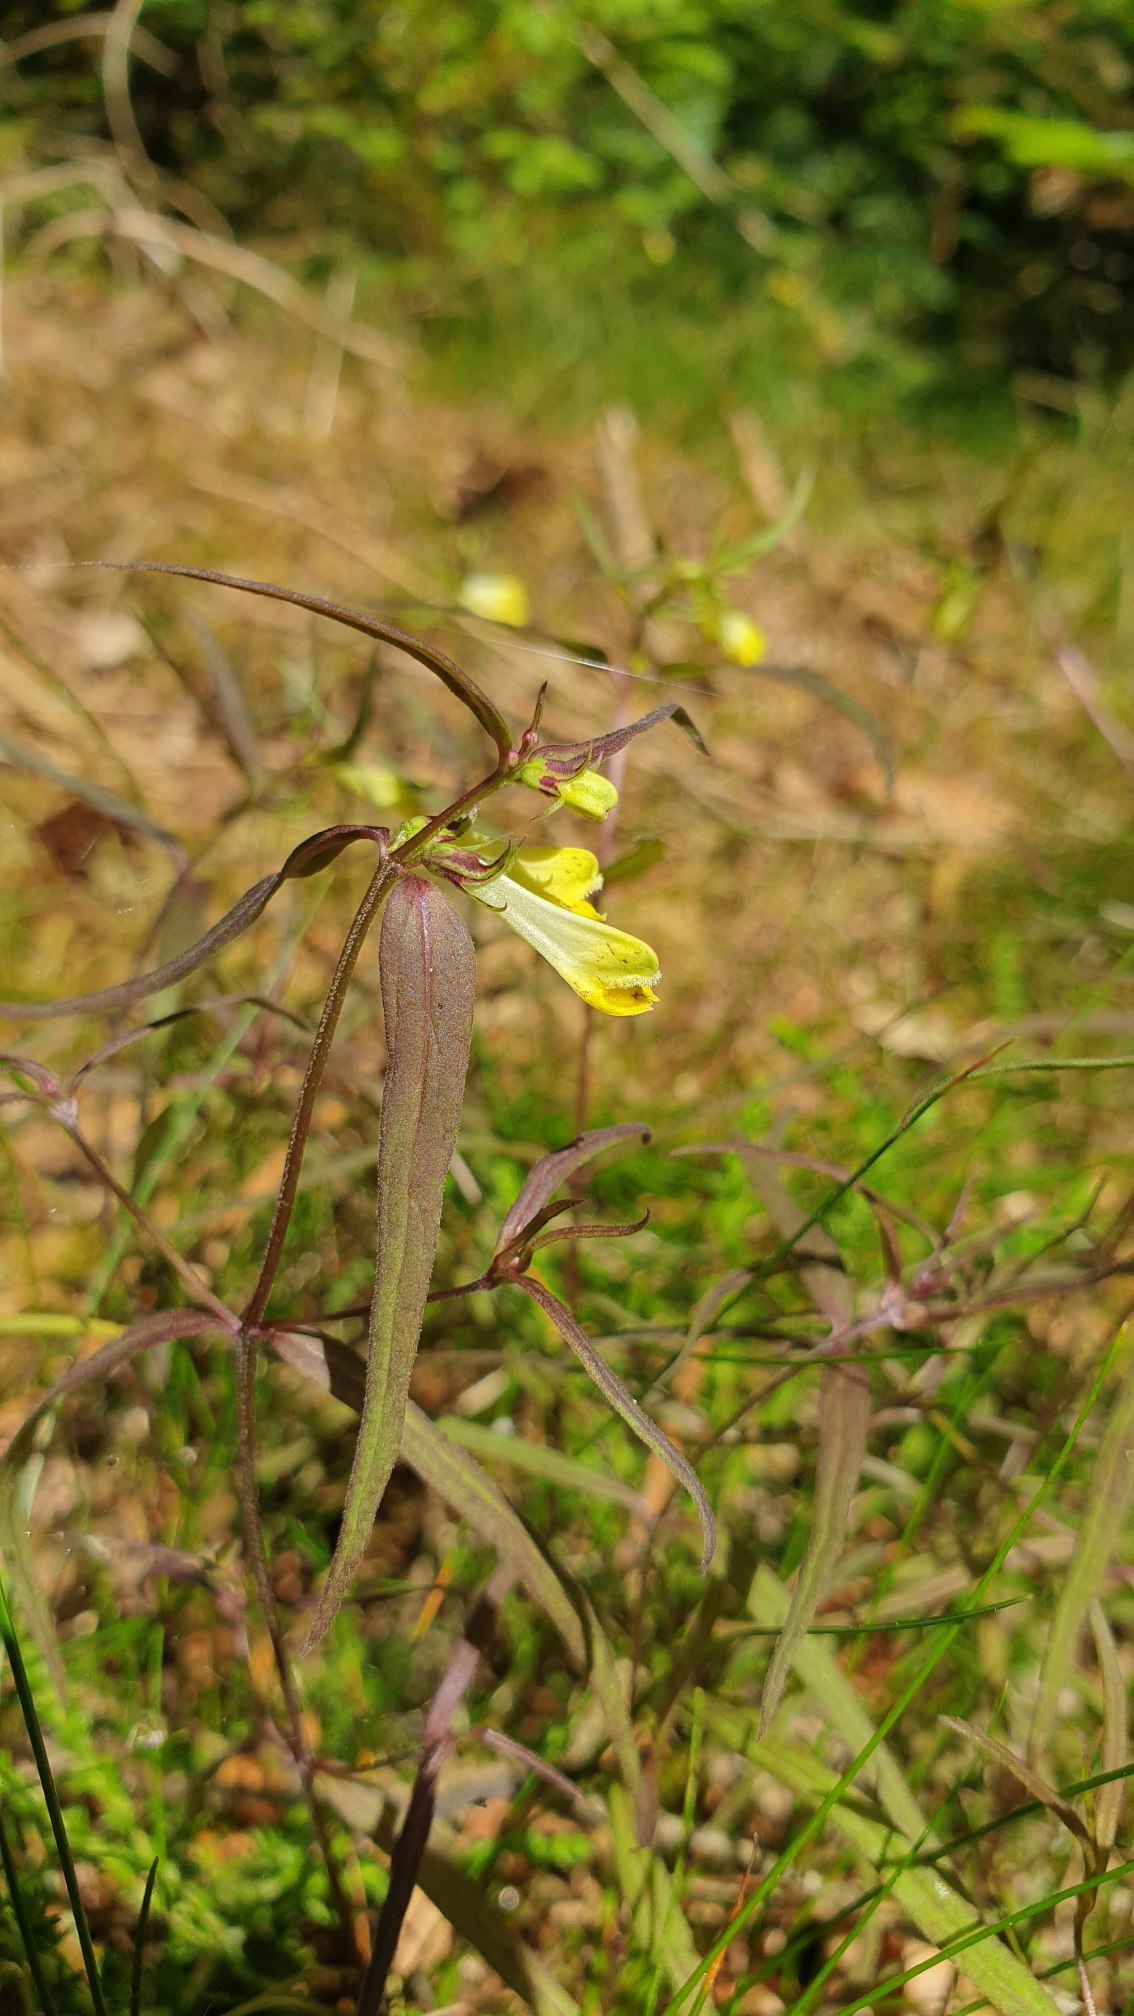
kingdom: Plantae
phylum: Tracheophyta
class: Magnoliopsida
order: Lamiales
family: Orobanchaceae
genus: Melampyrum
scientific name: Melampyrum pratense
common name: Almindelig kohvede
